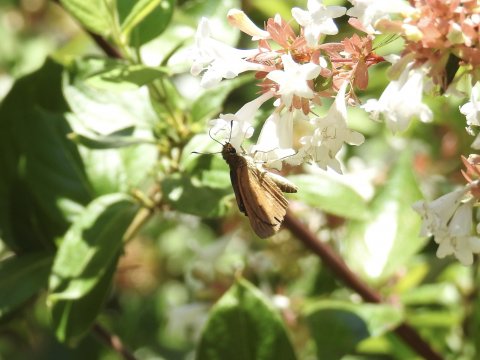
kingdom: Animalia
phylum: Arthropoda
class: Insecta
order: Lepidoptera
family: Hesperiidae
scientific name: Hesperiidae
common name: Skippers
